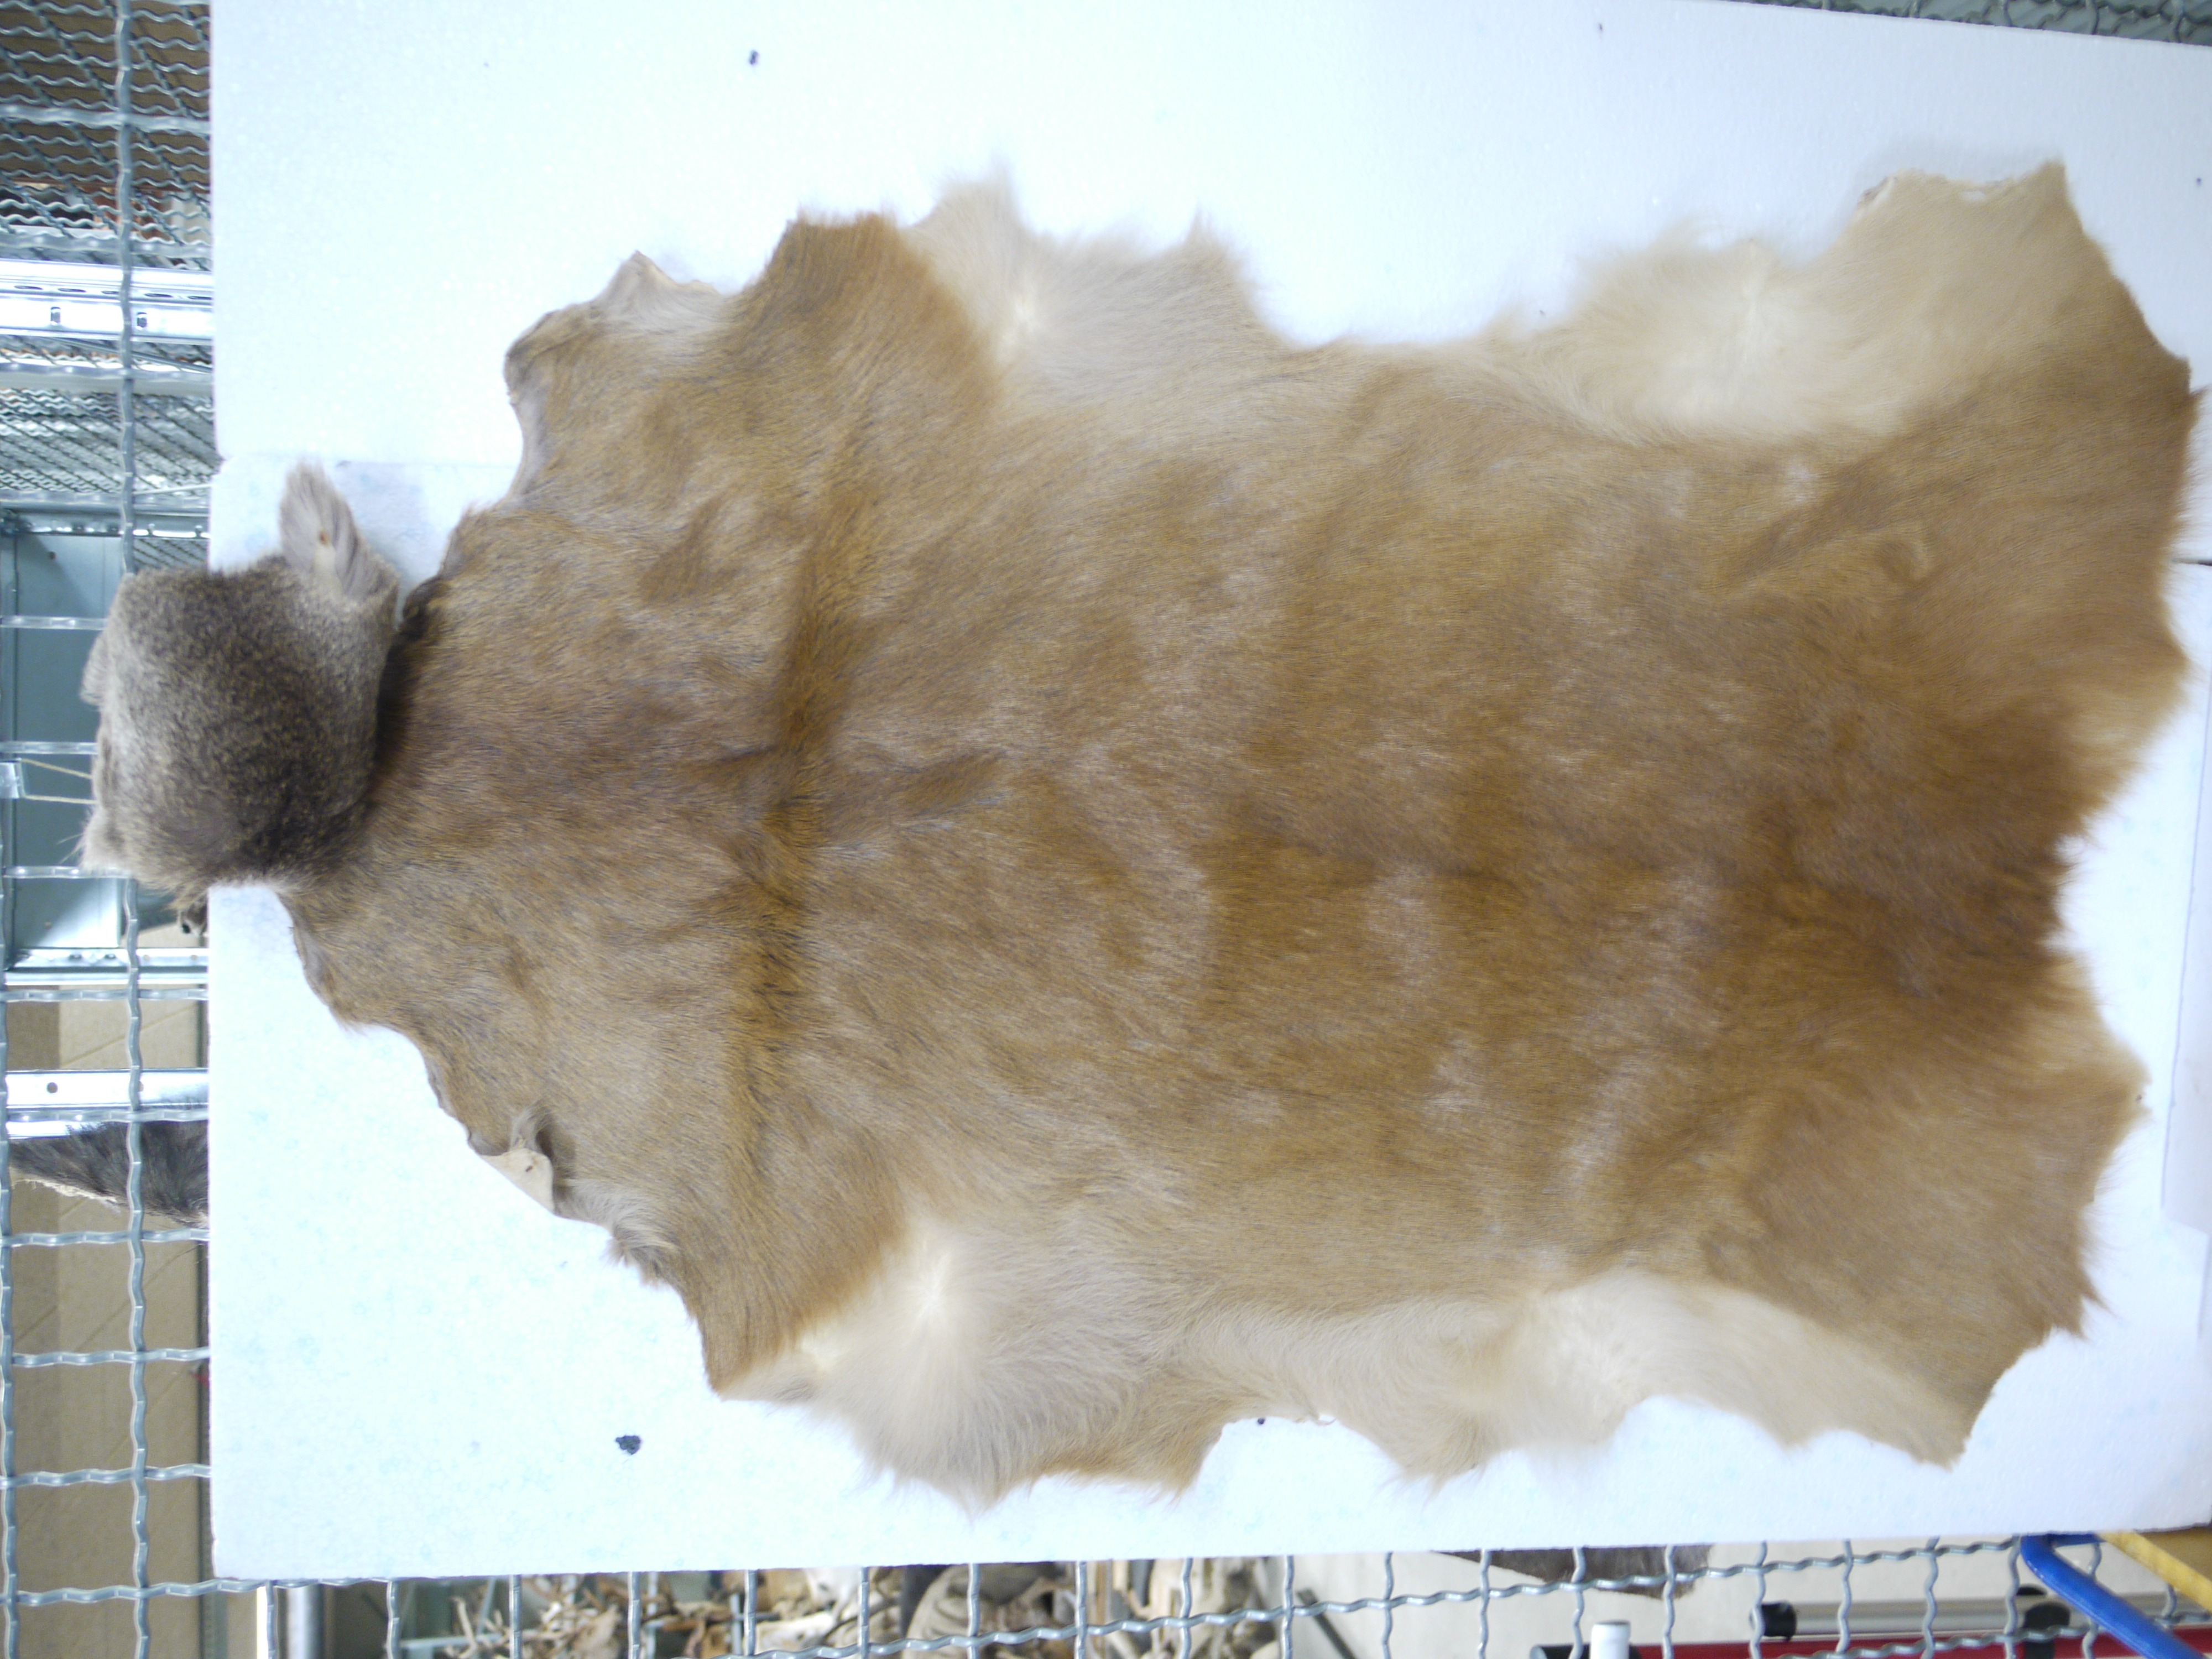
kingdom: Animalia
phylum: Chordata
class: Mammalia
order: Artiodactyla
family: Cervidae
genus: Capreolus
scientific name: Capreolus capreolus
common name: Western roe deer
